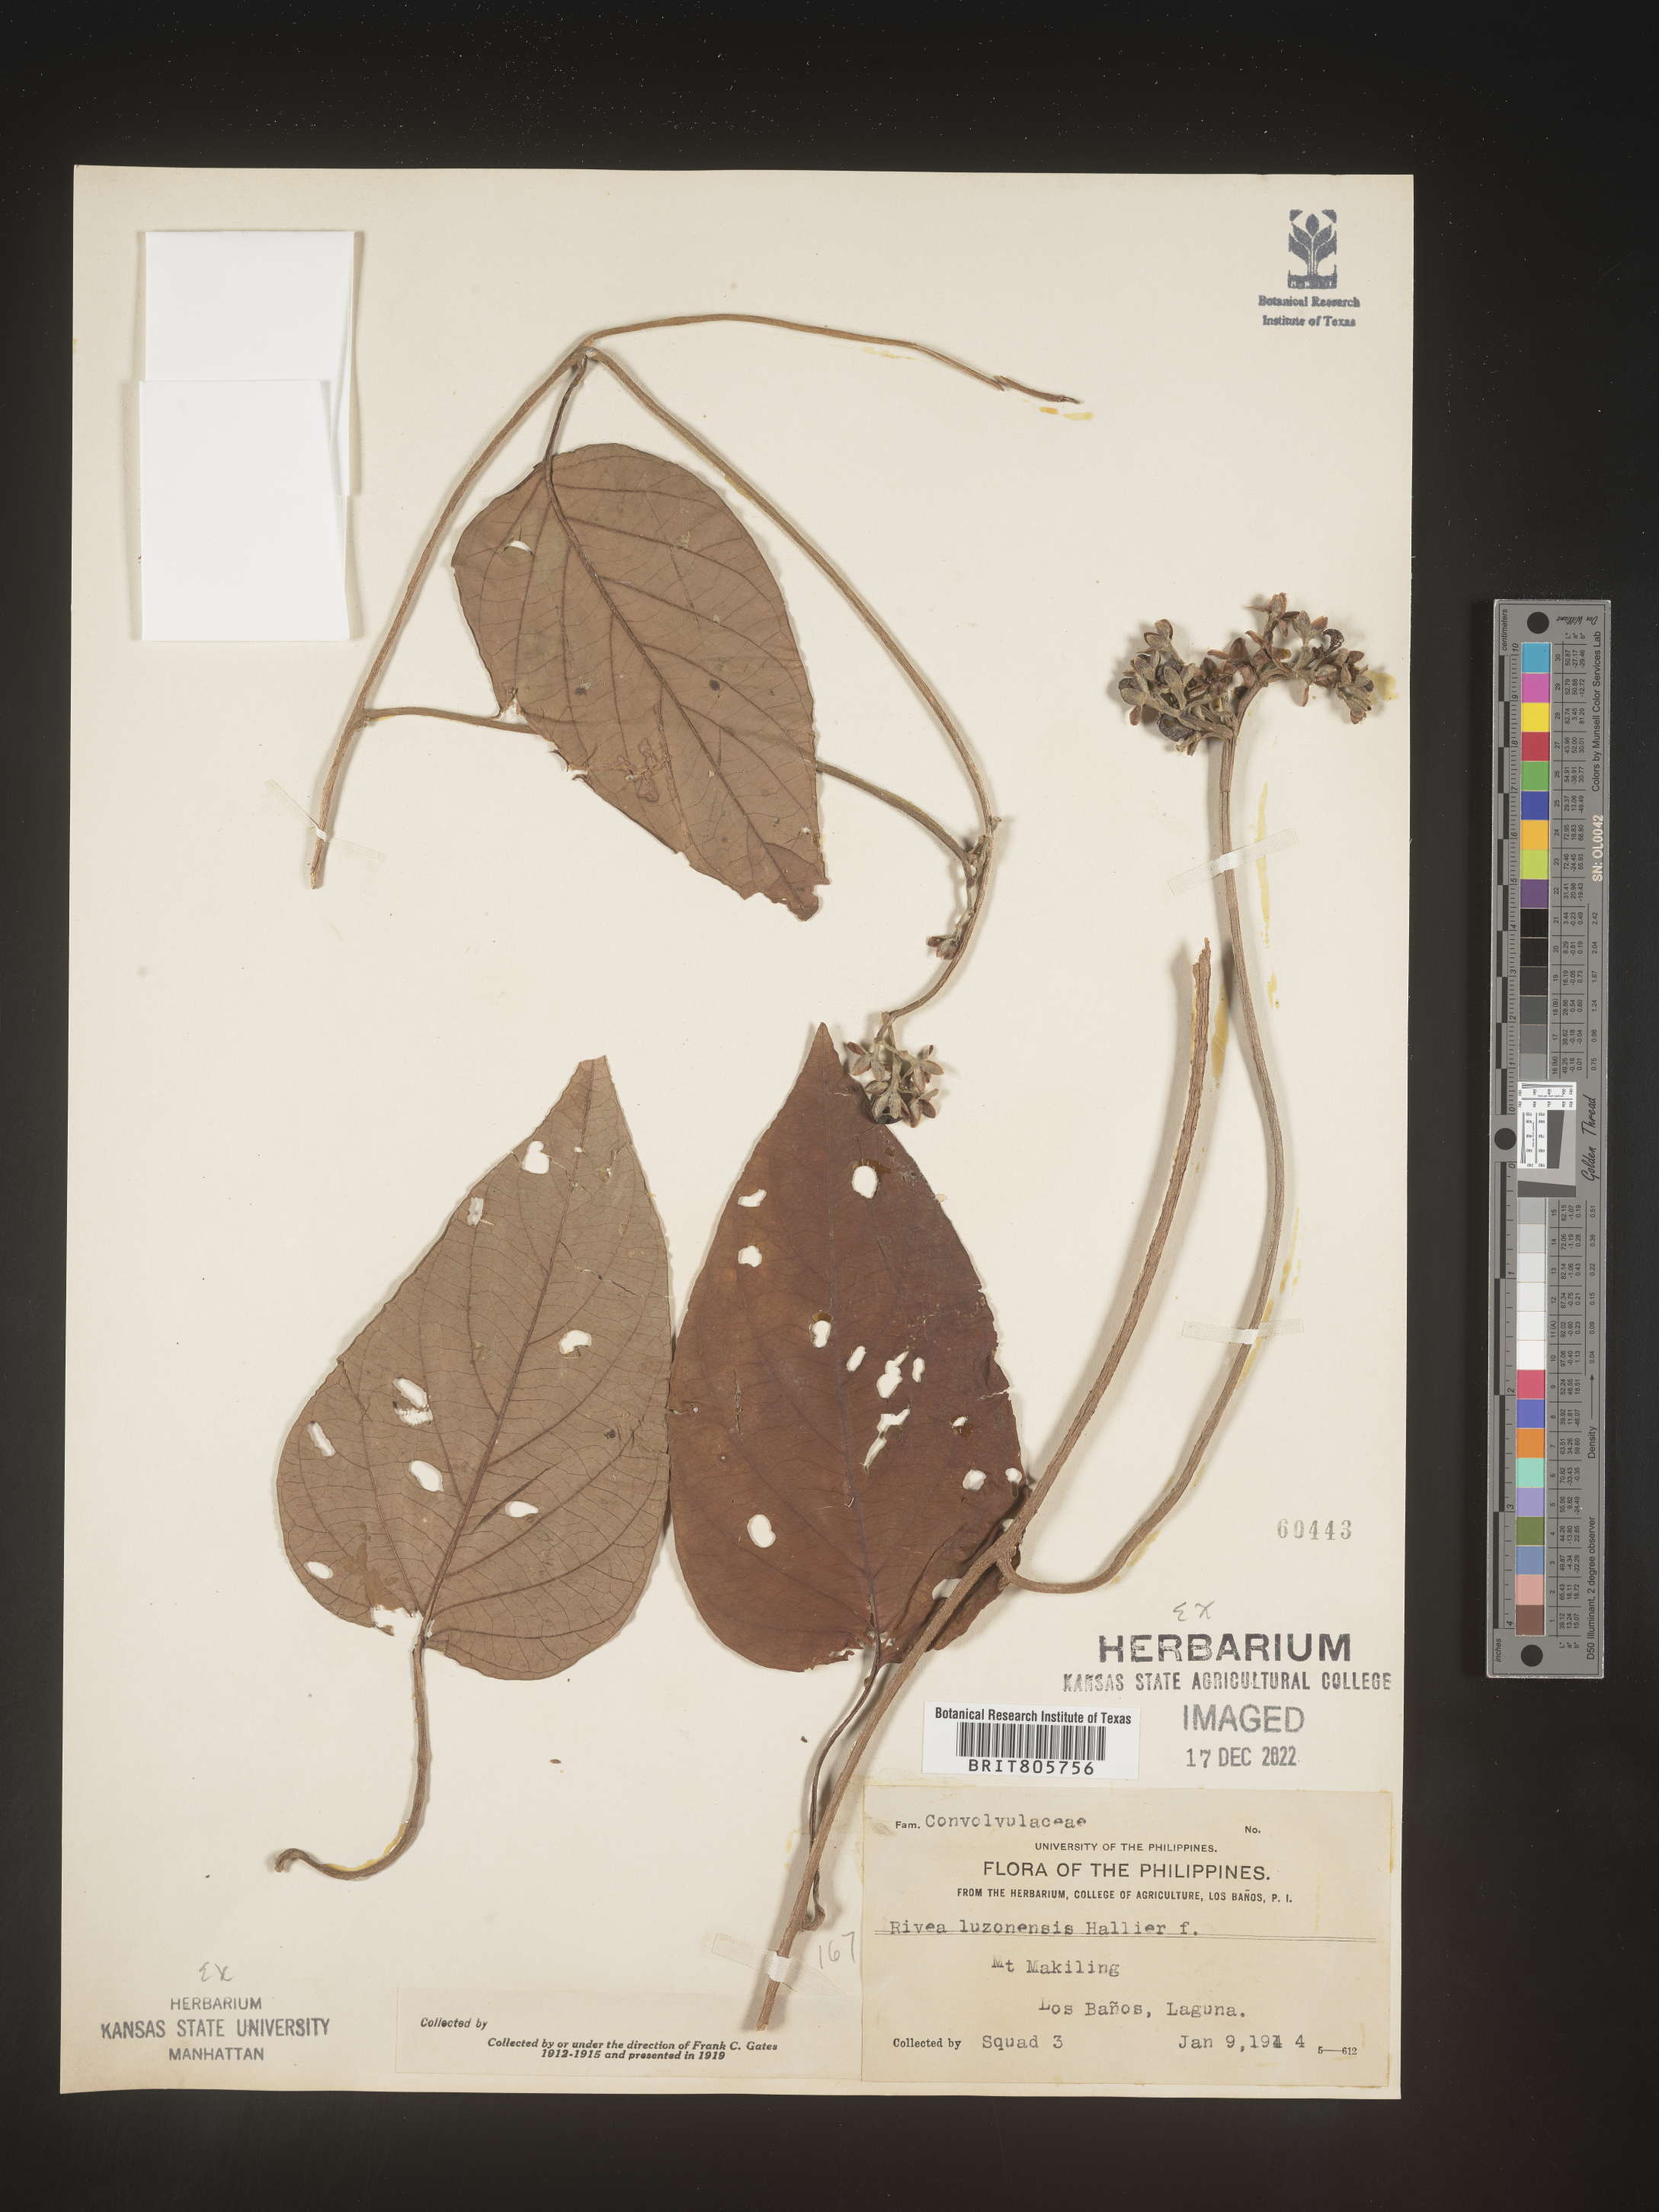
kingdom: Plantae
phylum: Tracheophyta
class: Magnoliopsida
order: Solanales
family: Convolvulaceae
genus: Rivea
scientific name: Rivea
